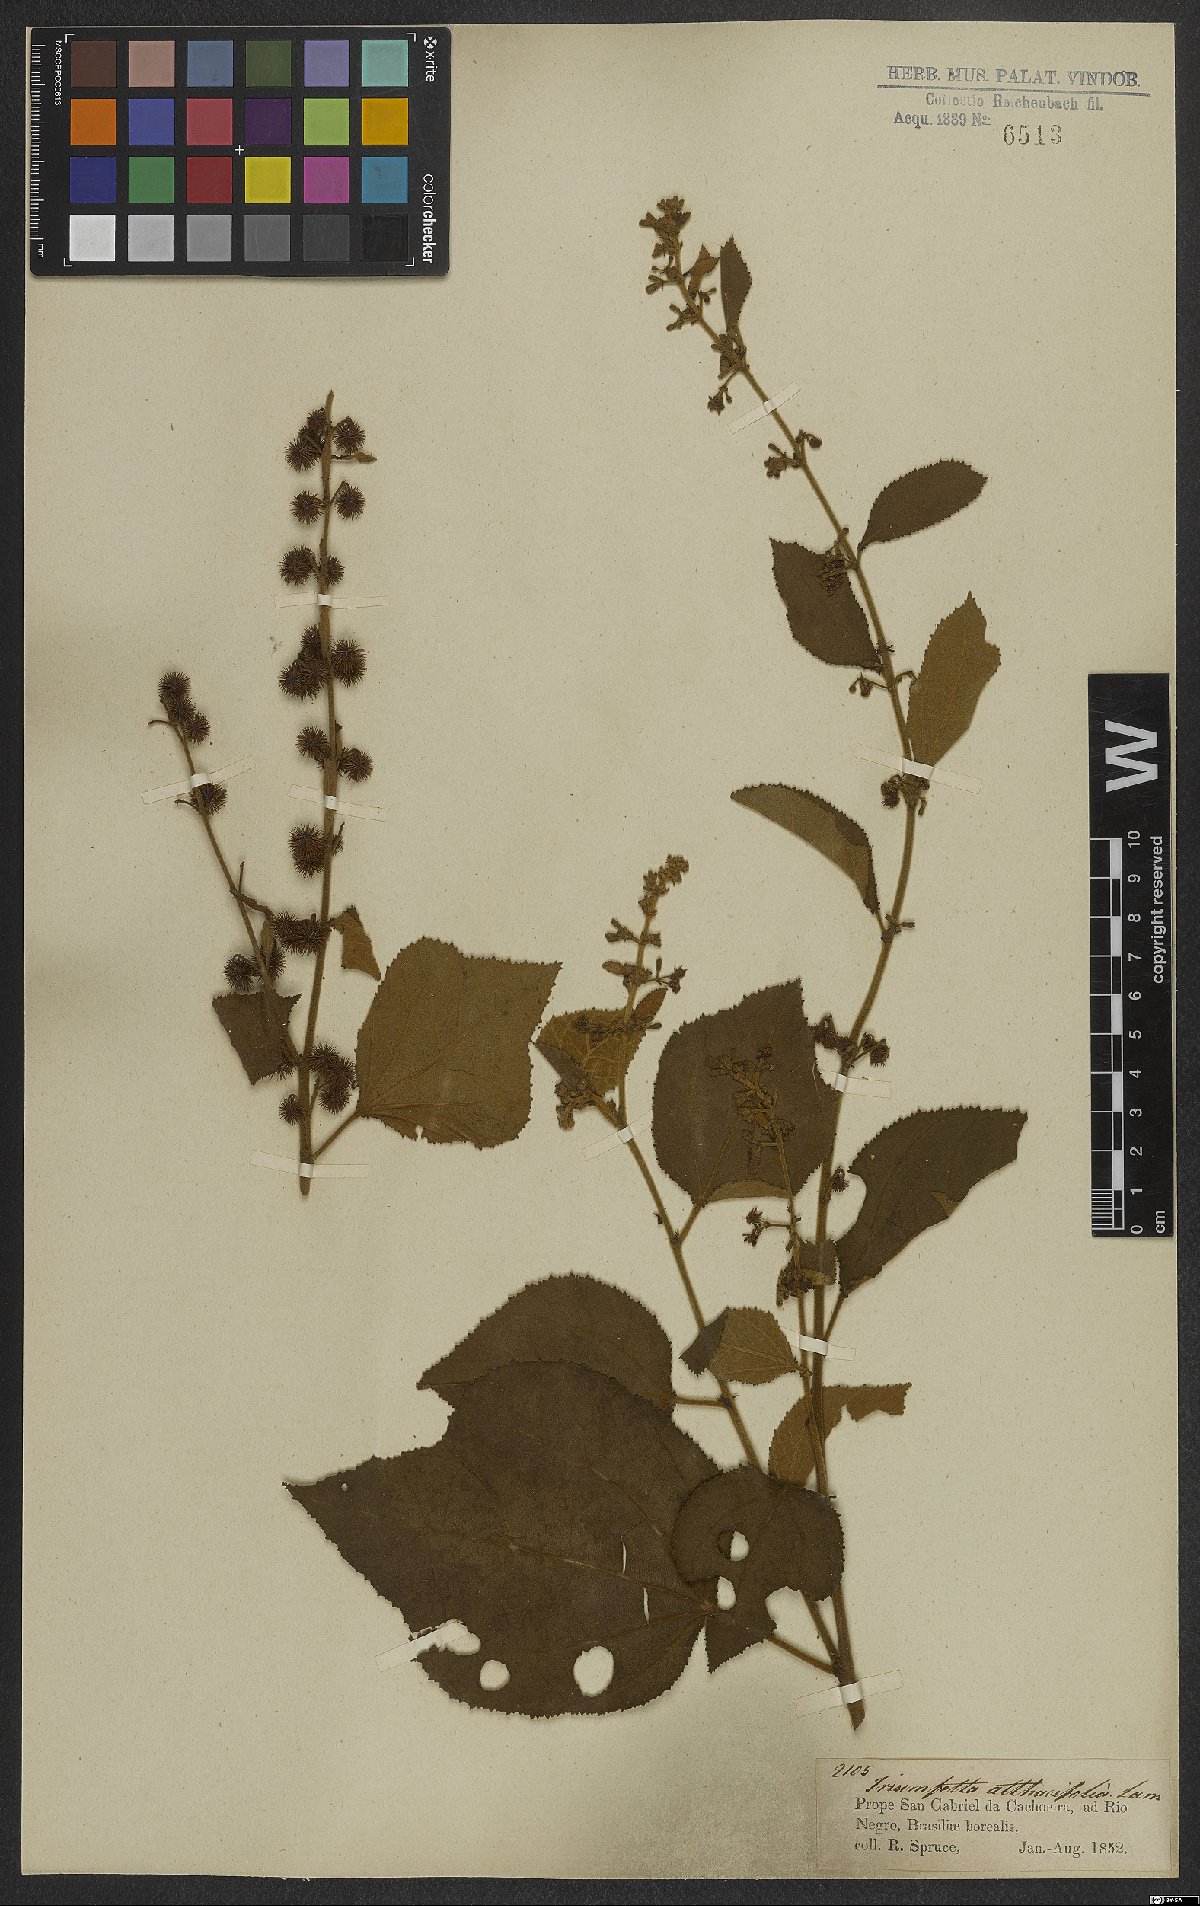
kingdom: Plantae
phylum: Tracheophyta
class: Magnoliopsida
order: Malvales
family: Malvaceae
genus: Triumfetta
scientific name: Triumfetta althaeoides
